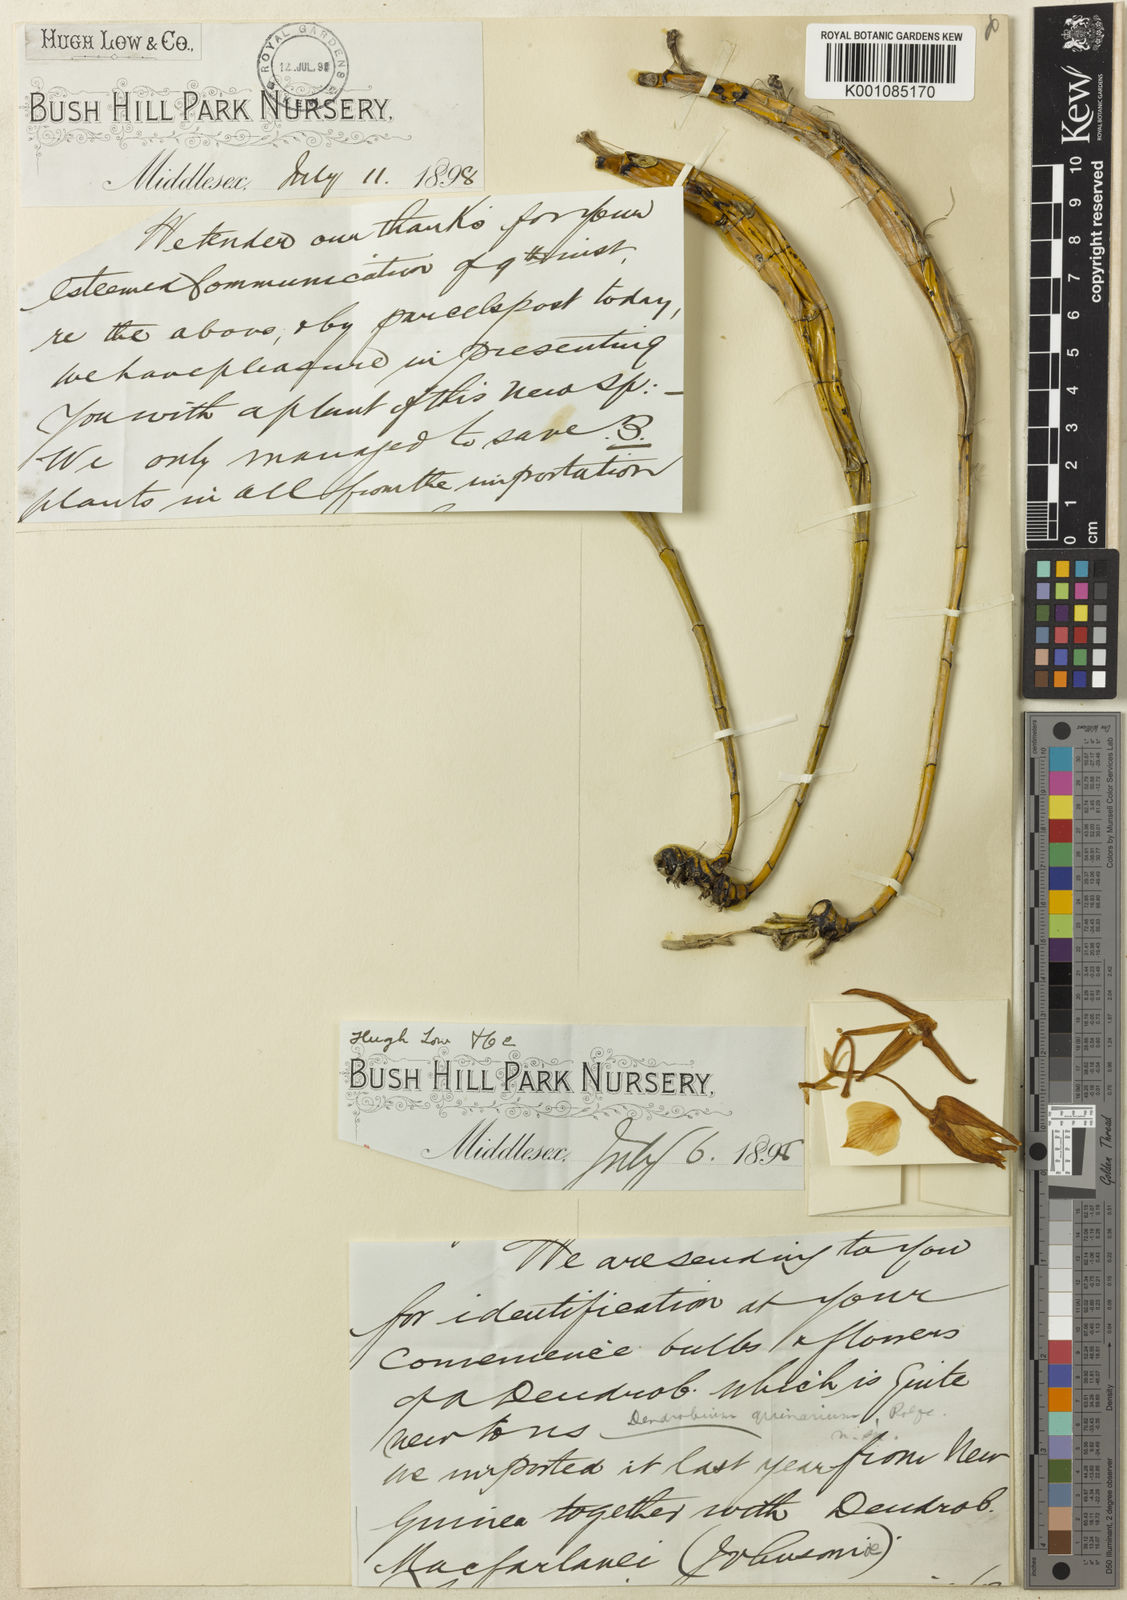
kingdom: Plantae
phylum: Tracheophyta
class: Liliopsida
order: Asparagales
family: Orchidaceae
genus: Dendrobium
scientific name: Dendrobium lacteum
